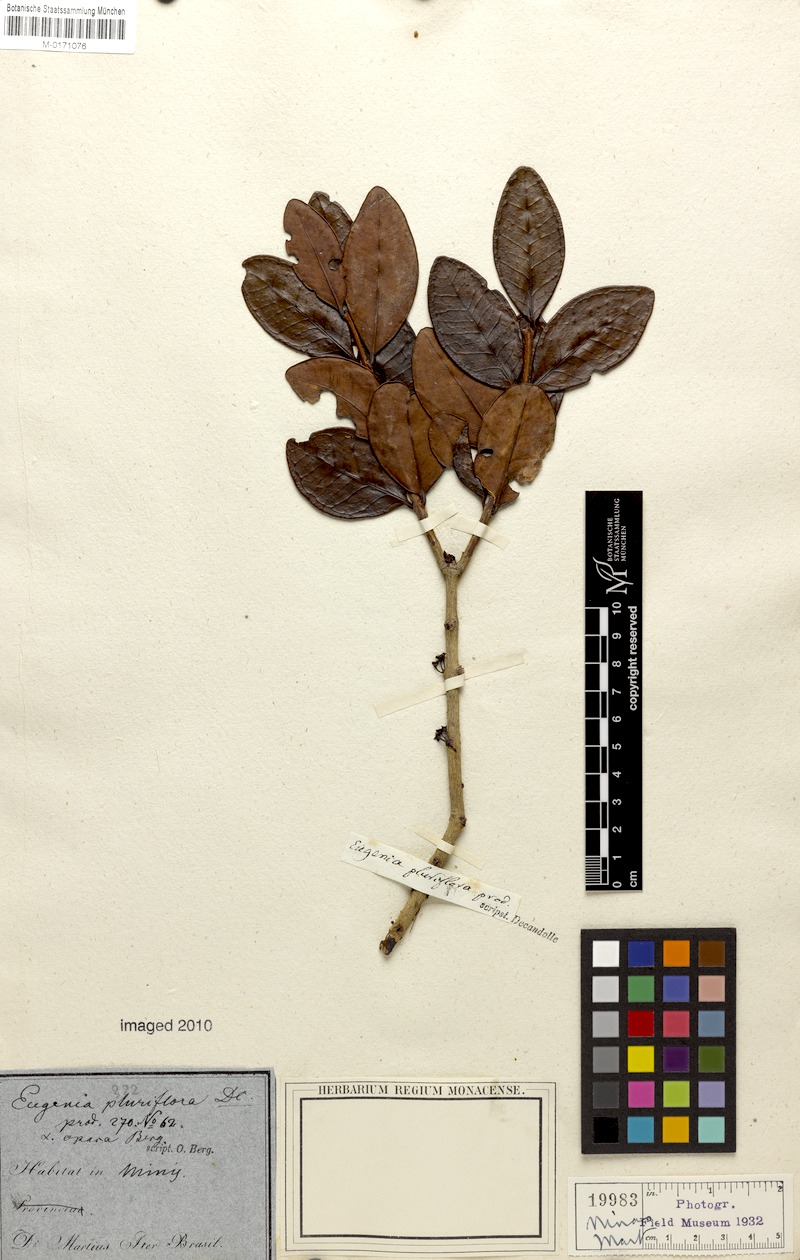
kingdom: Plantae
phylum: Tracheophyta
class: Magnoliopsida
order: Myrtales
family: Myrtaceae
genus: Eugenia
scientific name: Eugenia pluriflora
